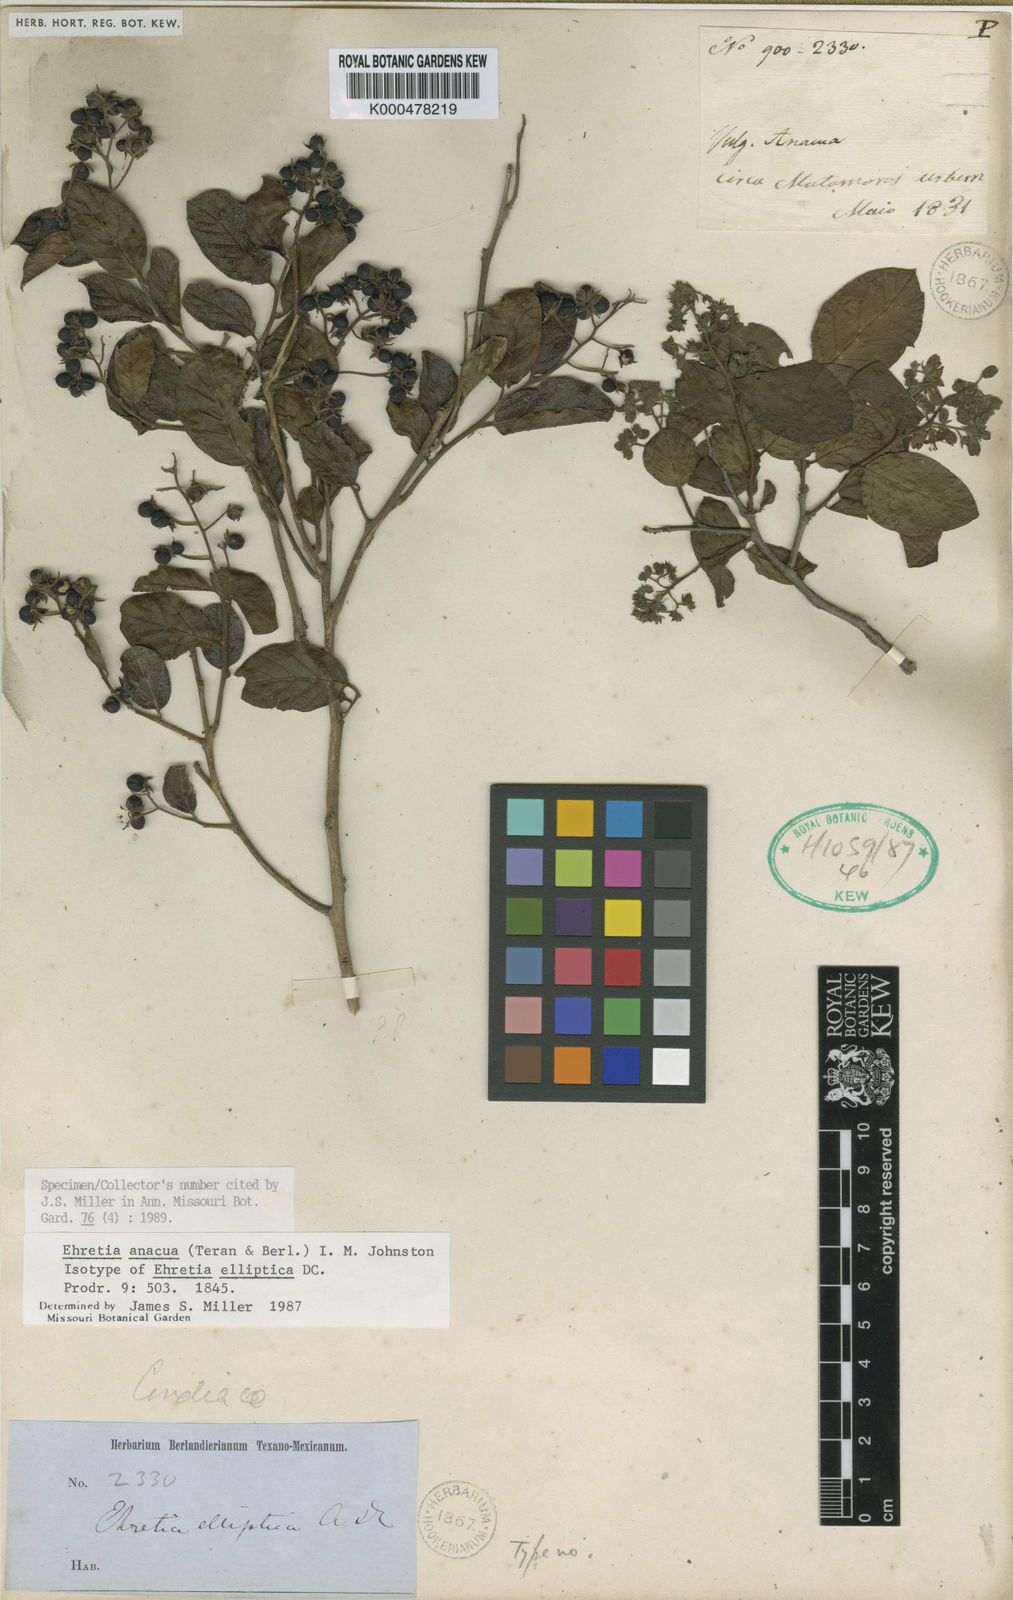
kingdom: Plantae
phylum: Tracheophyta
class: Magnoliopsida
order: Boraginales
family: Ehretiaceae
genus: Ehretia
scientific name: Ehretia
